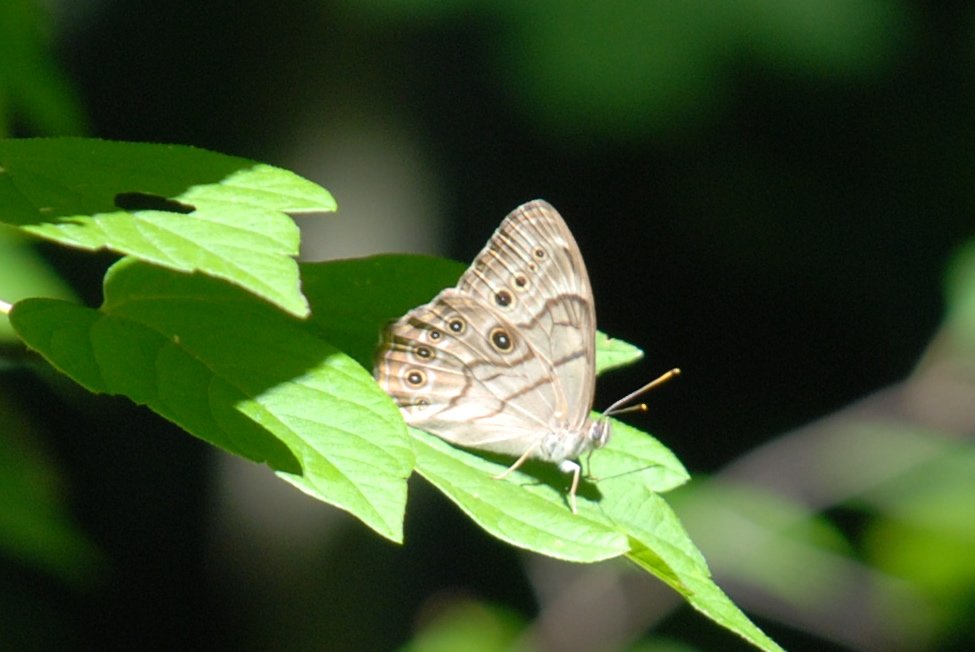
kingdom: Animalia
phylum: Arthropoda
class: Insecta
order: Lepidoptera
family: Nymphalidae
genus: Lethe
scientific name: Lethe anthedon
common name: Northern Pearly-Eye
